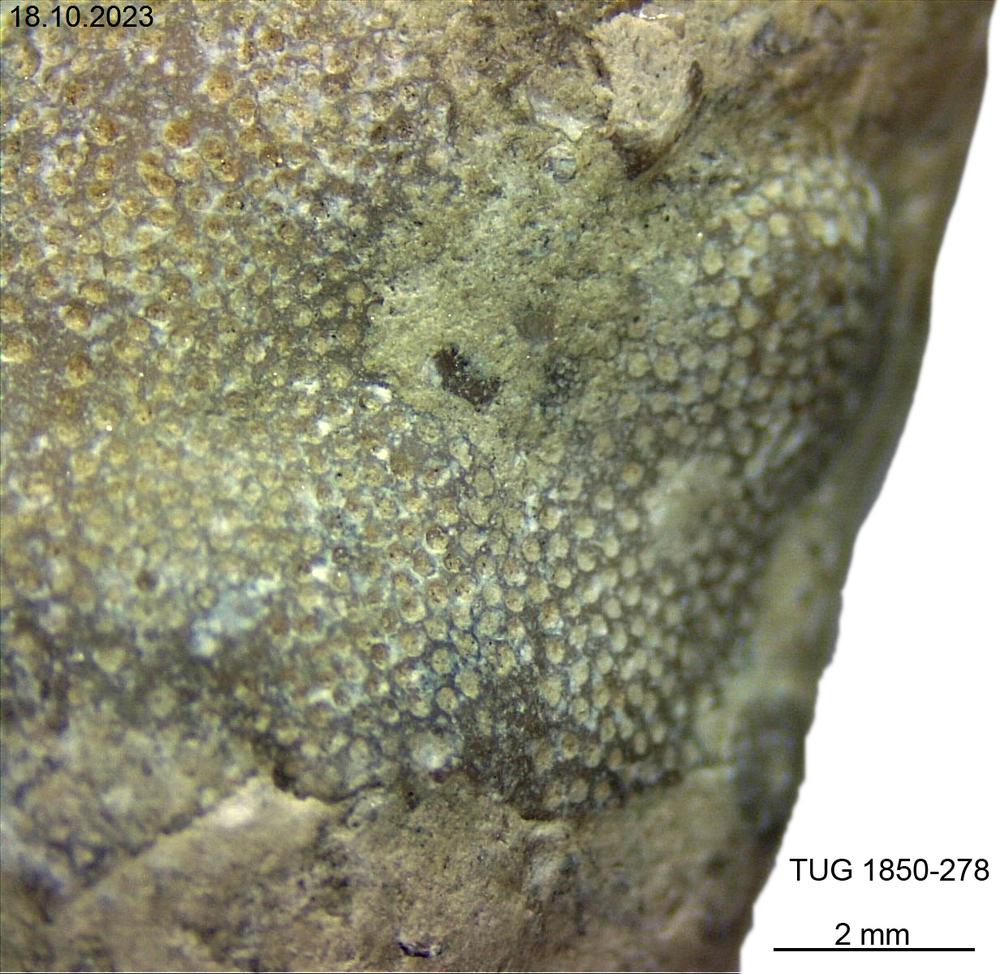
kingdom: Animalia
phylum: Bryozoa
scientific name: Bryozoa
